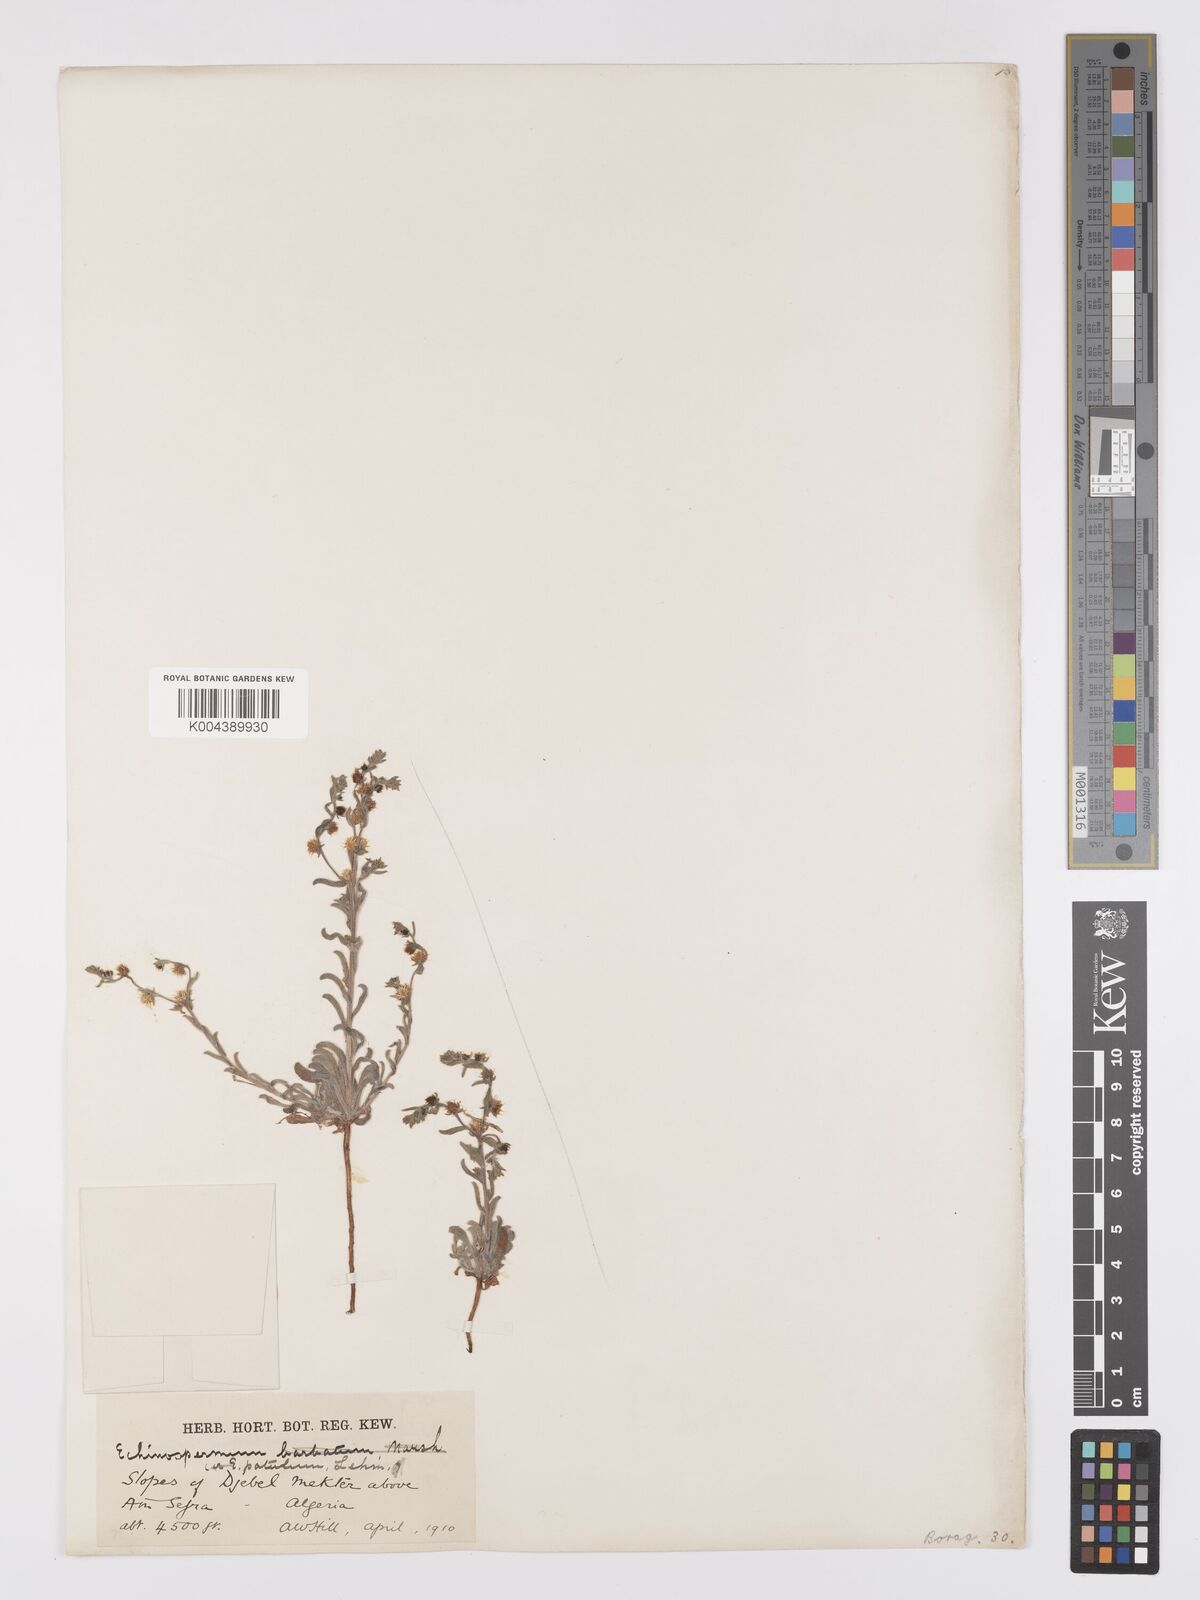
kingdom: Plantae
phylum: Tracheophyta
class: Magnoliopsida
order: Boraginales
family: Boraginaceae
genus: Lappula
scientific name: Lappula patula
